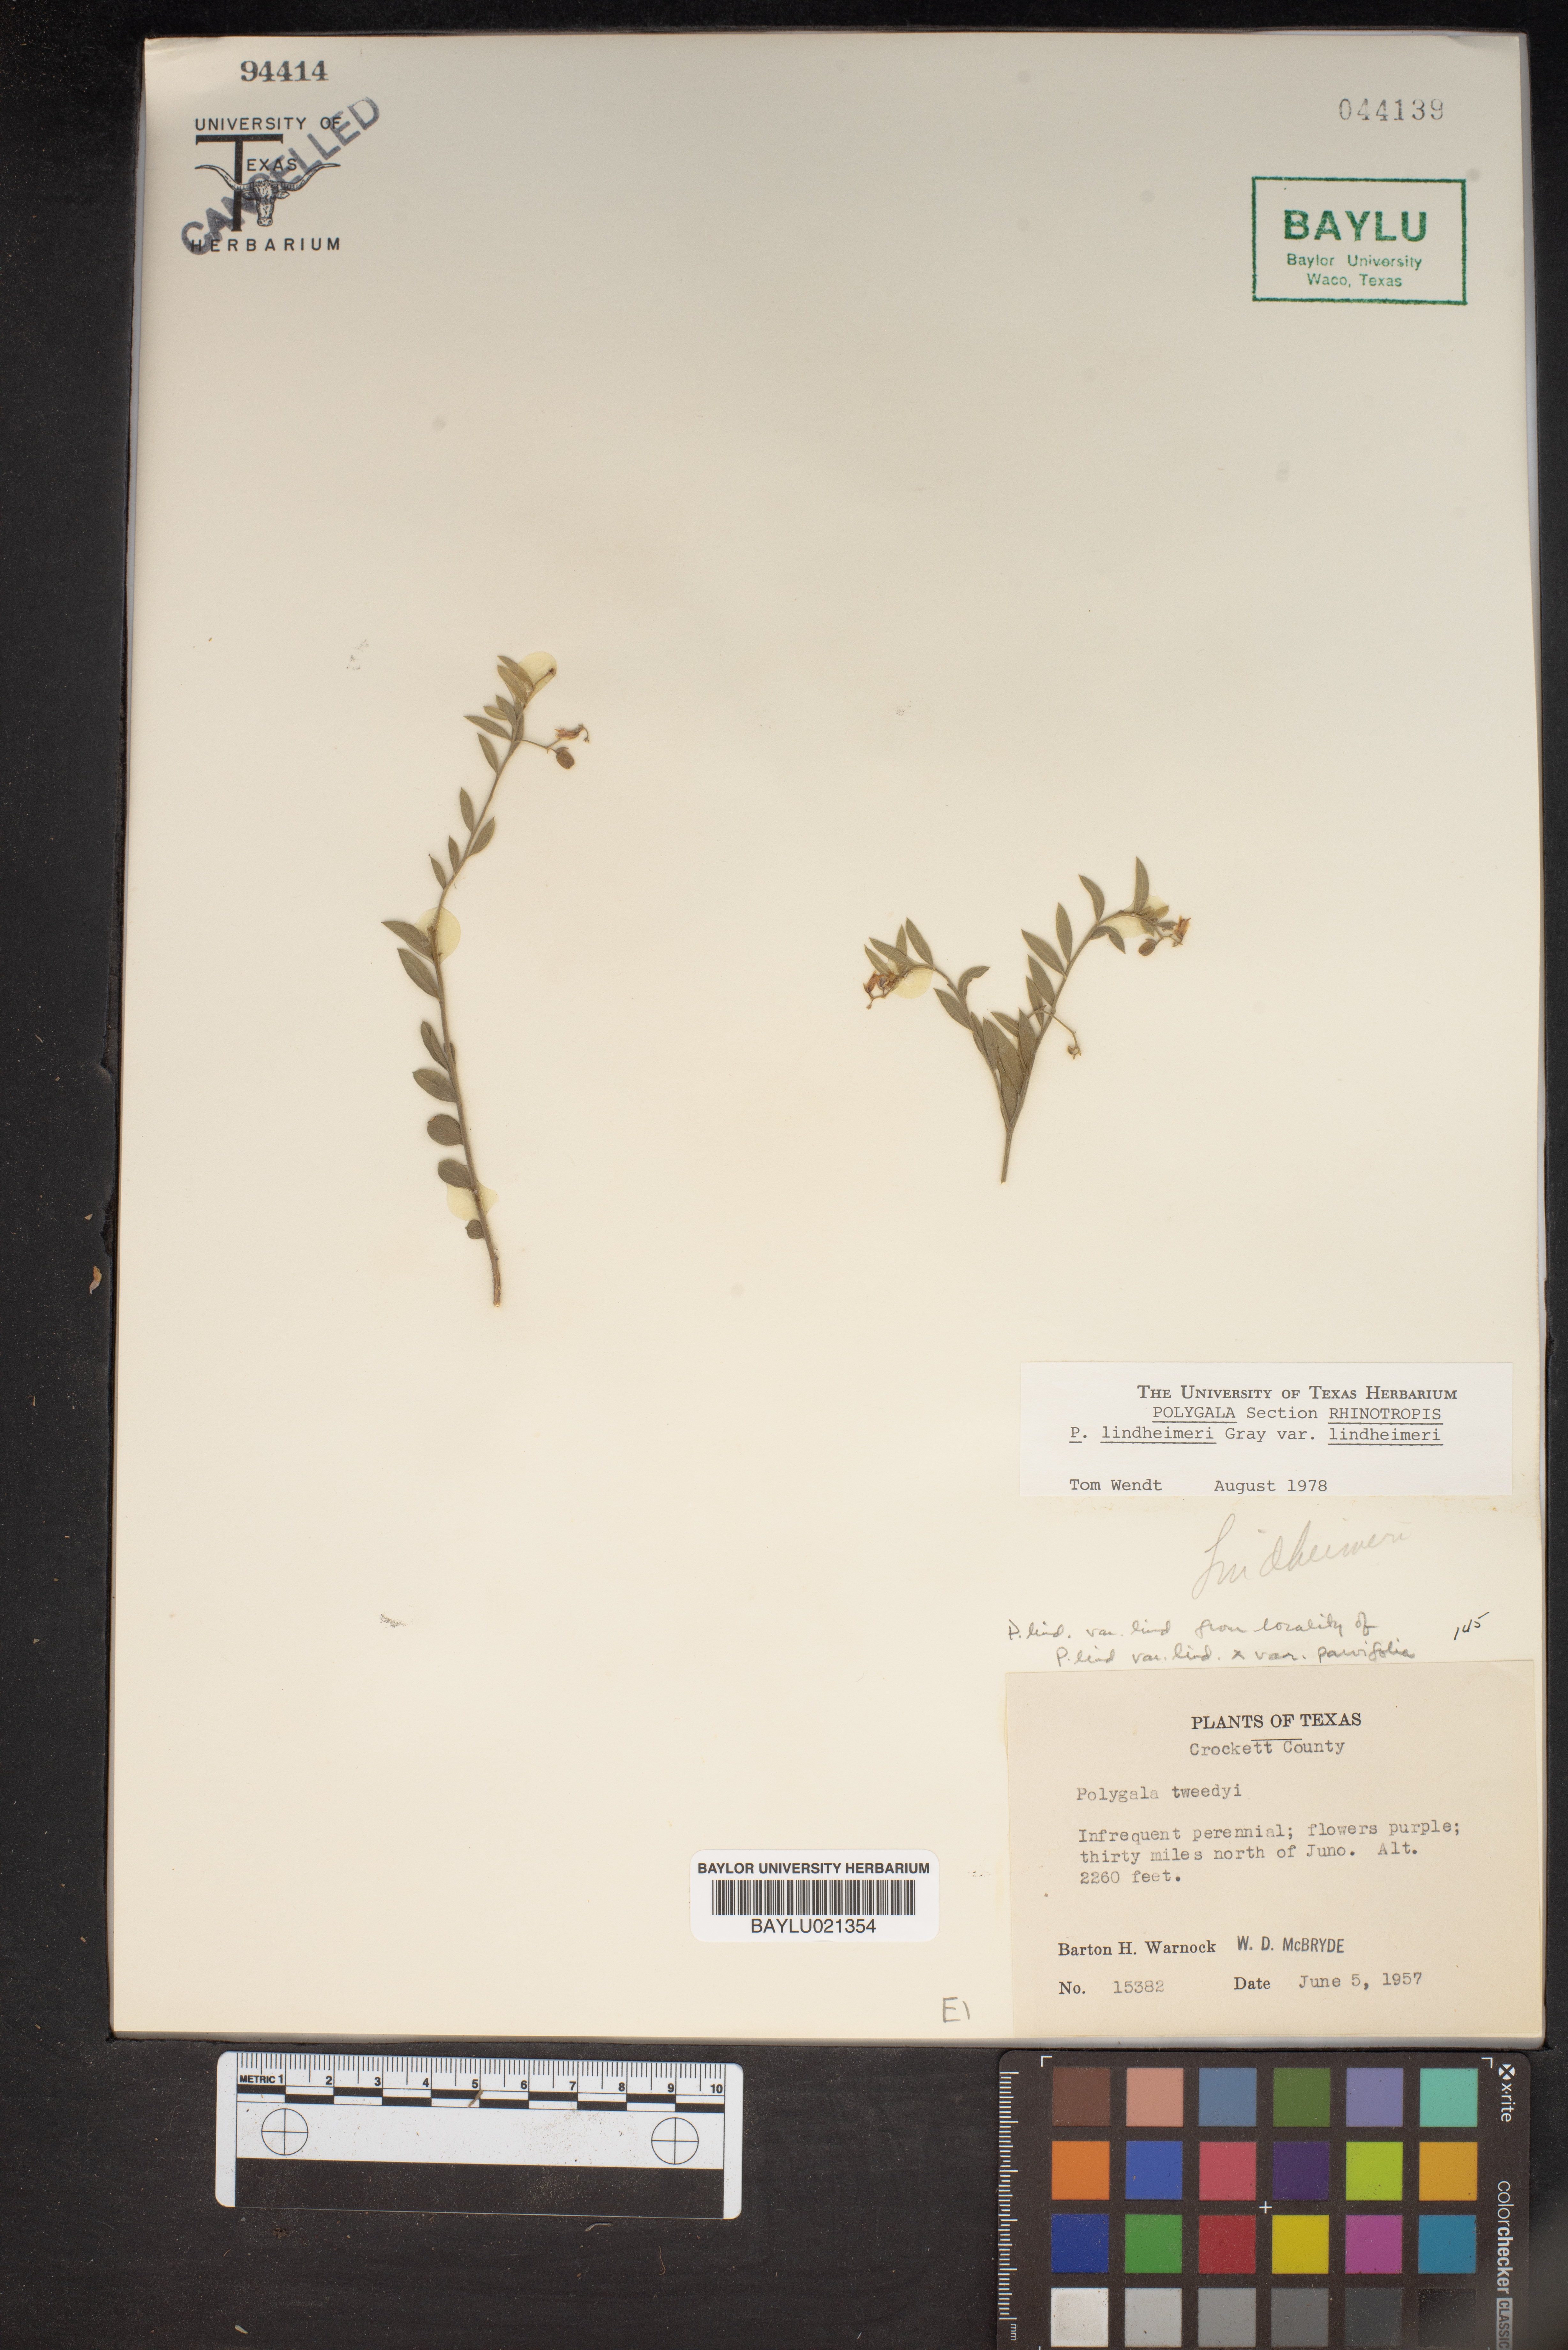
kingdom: Plantae
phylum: Tracheophyta
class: Magnoliopsida
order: Fabales
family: Polygalaceae
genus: Rhinotropis
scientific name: Rhinotropis lindheimeri
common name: Shrubby milkwort
